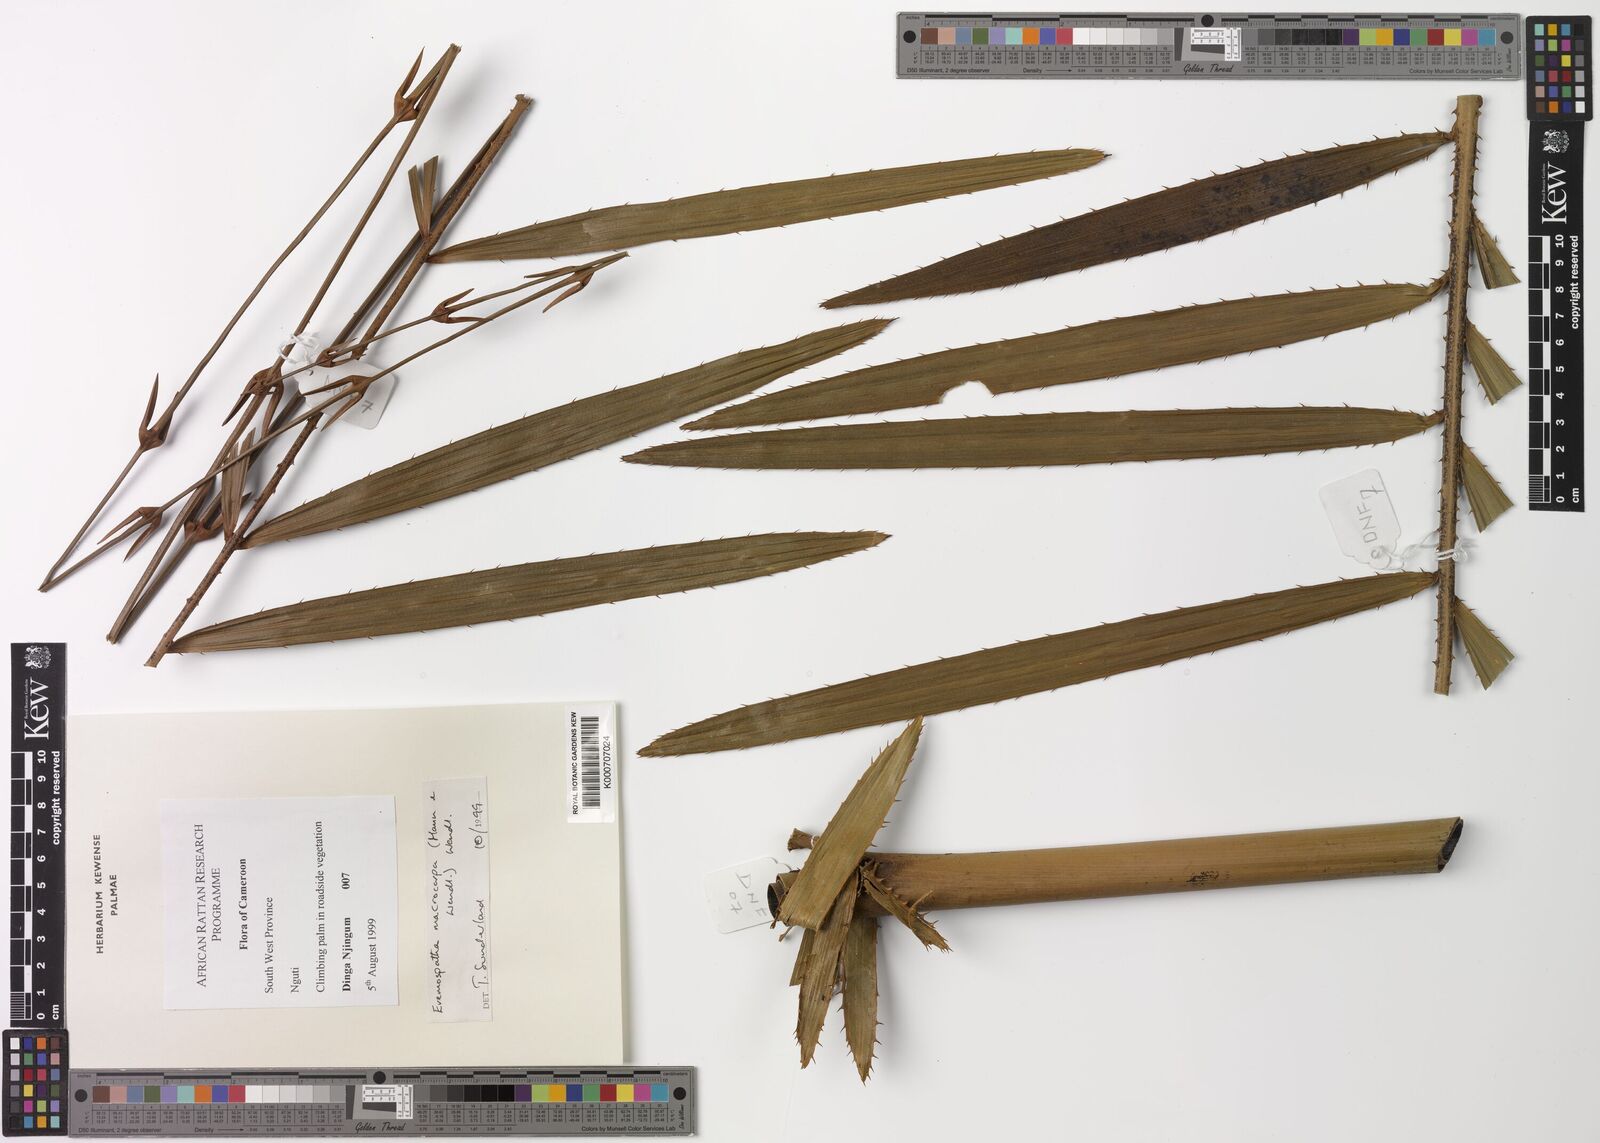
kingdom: Plantae
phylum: Tracheophyta
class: Liliopsida
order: Arecales
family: Arecaceae
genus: Eremospatha
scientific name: Eremospatha macrocarpa
